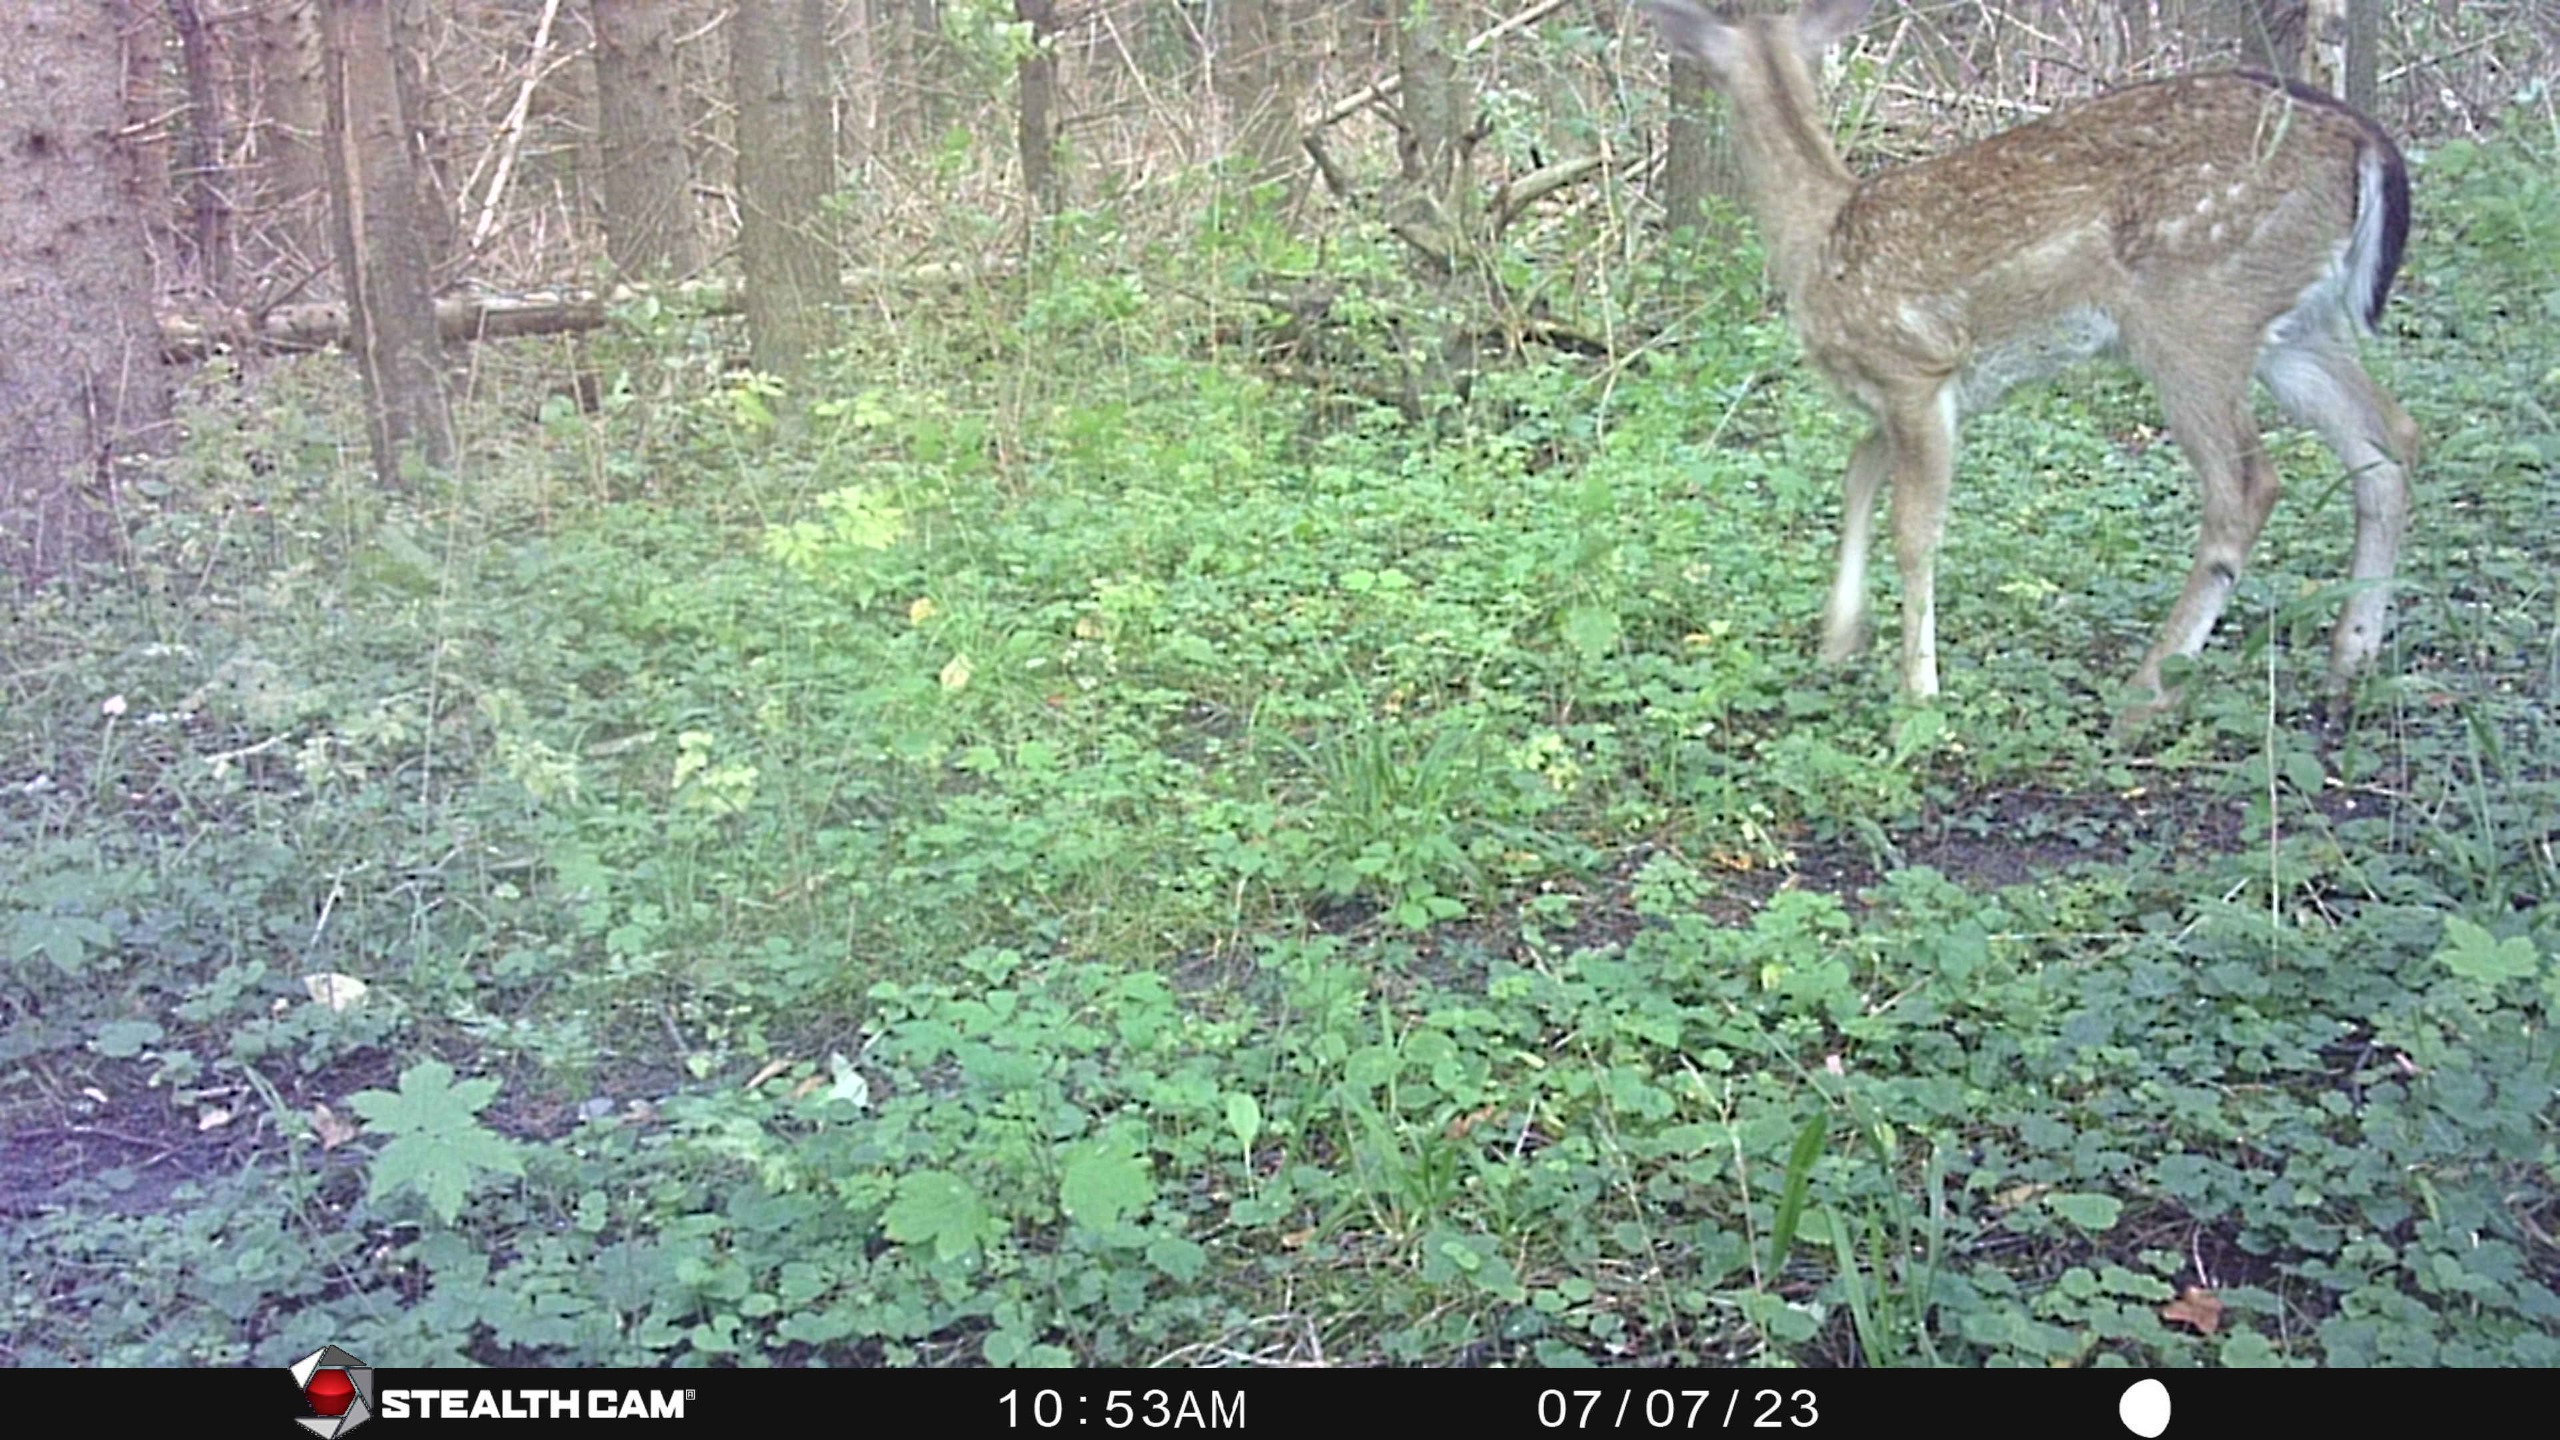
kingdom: Animalia
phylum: Chordata
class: Mammalia
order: Artiodactyla
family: Cervidae
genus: Dama
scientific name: Dama dama
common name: Dådyr
